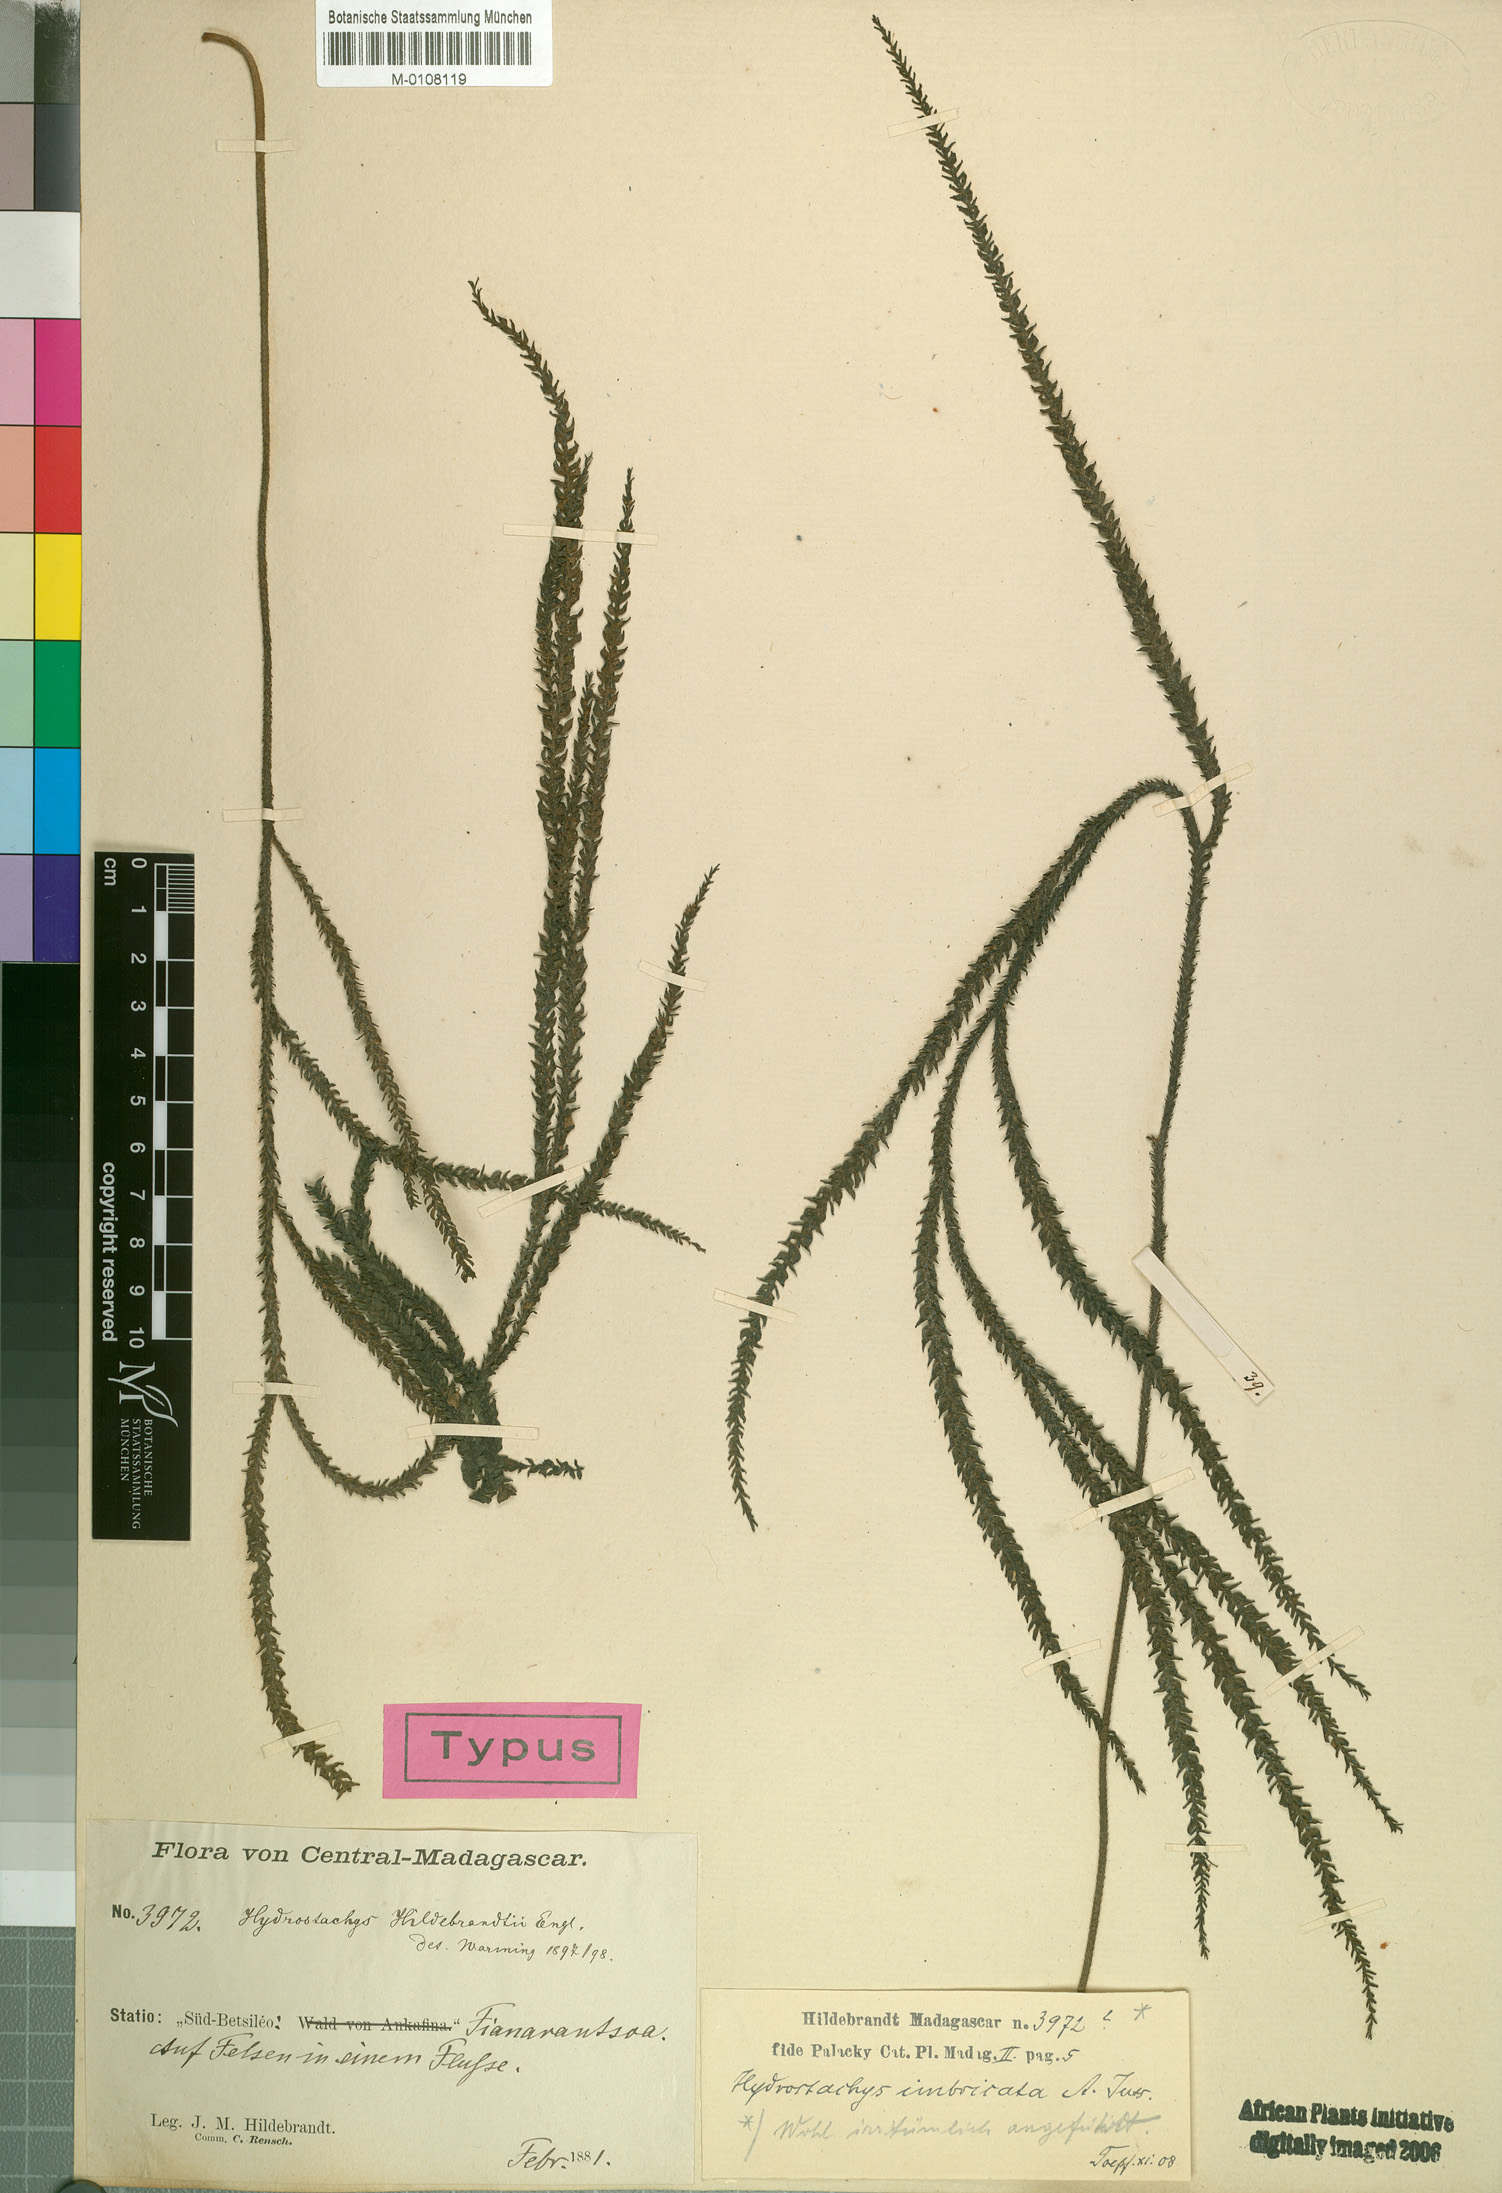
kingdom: Plantae
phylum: Tracheophyta
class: Magnoliopsida
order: Cornales
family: Hydrostachyaceae
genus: Hydrostachys
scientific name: Hydrostachys distichophylla
